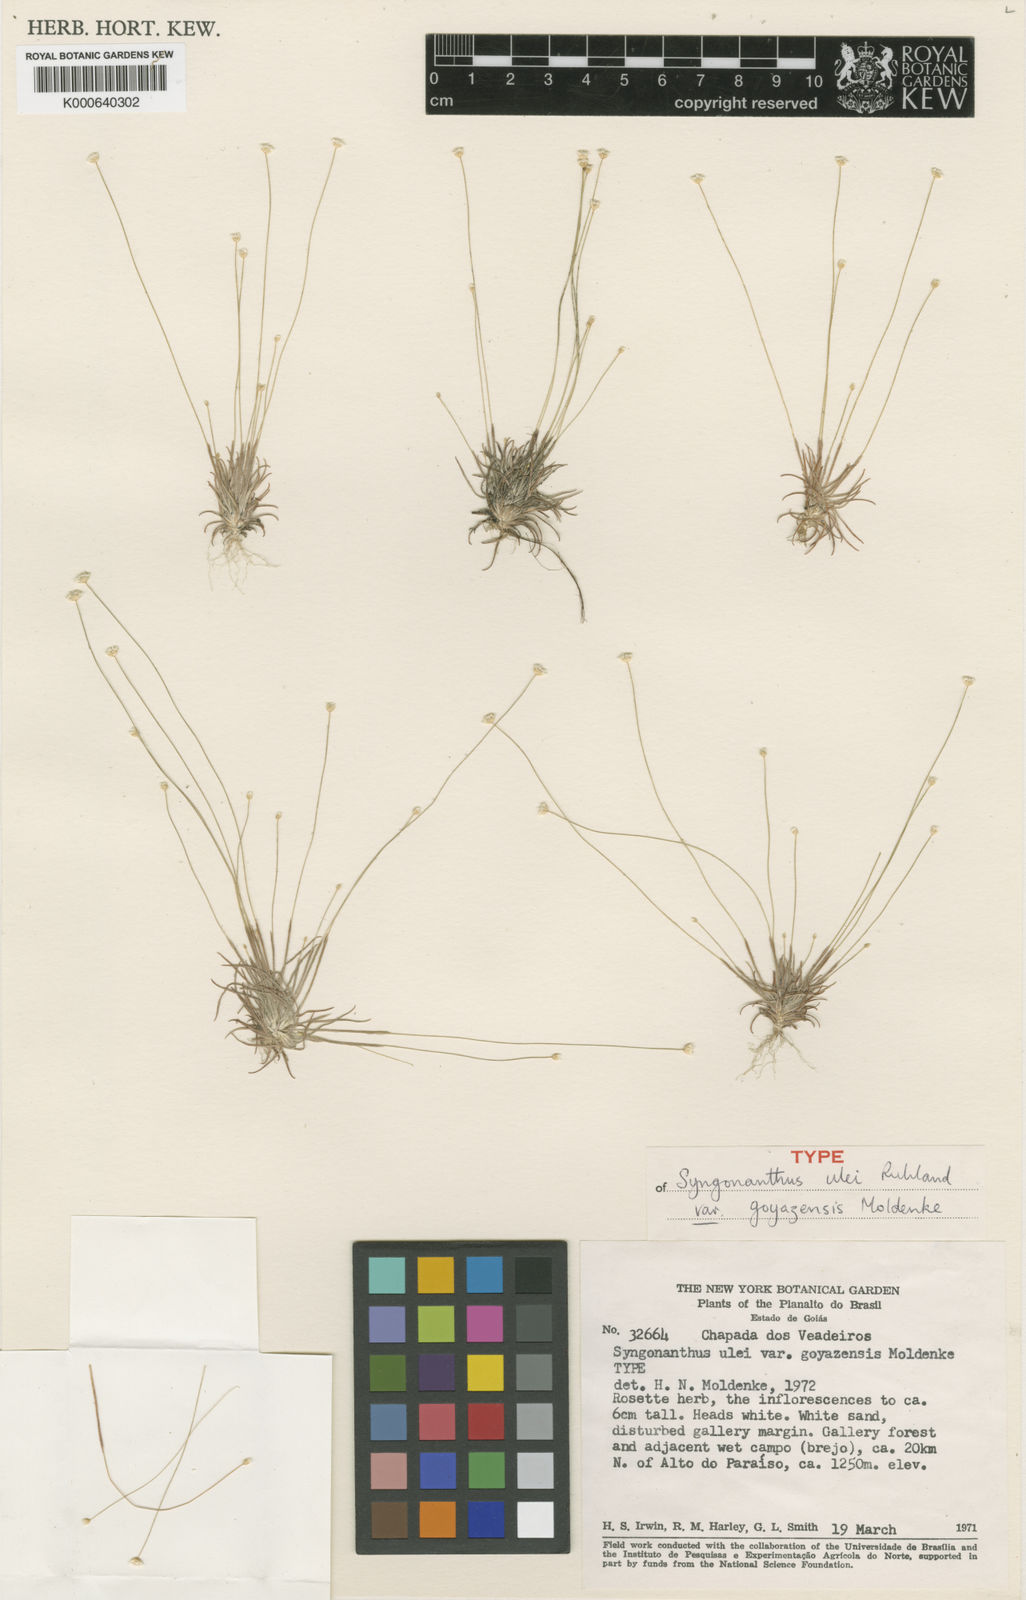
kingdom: Plantae
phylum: Tracheophyta
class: Liliopsida
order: Poales
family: Eriocaulaceae
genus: Comanthera
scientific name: Comanthera kegeliana
